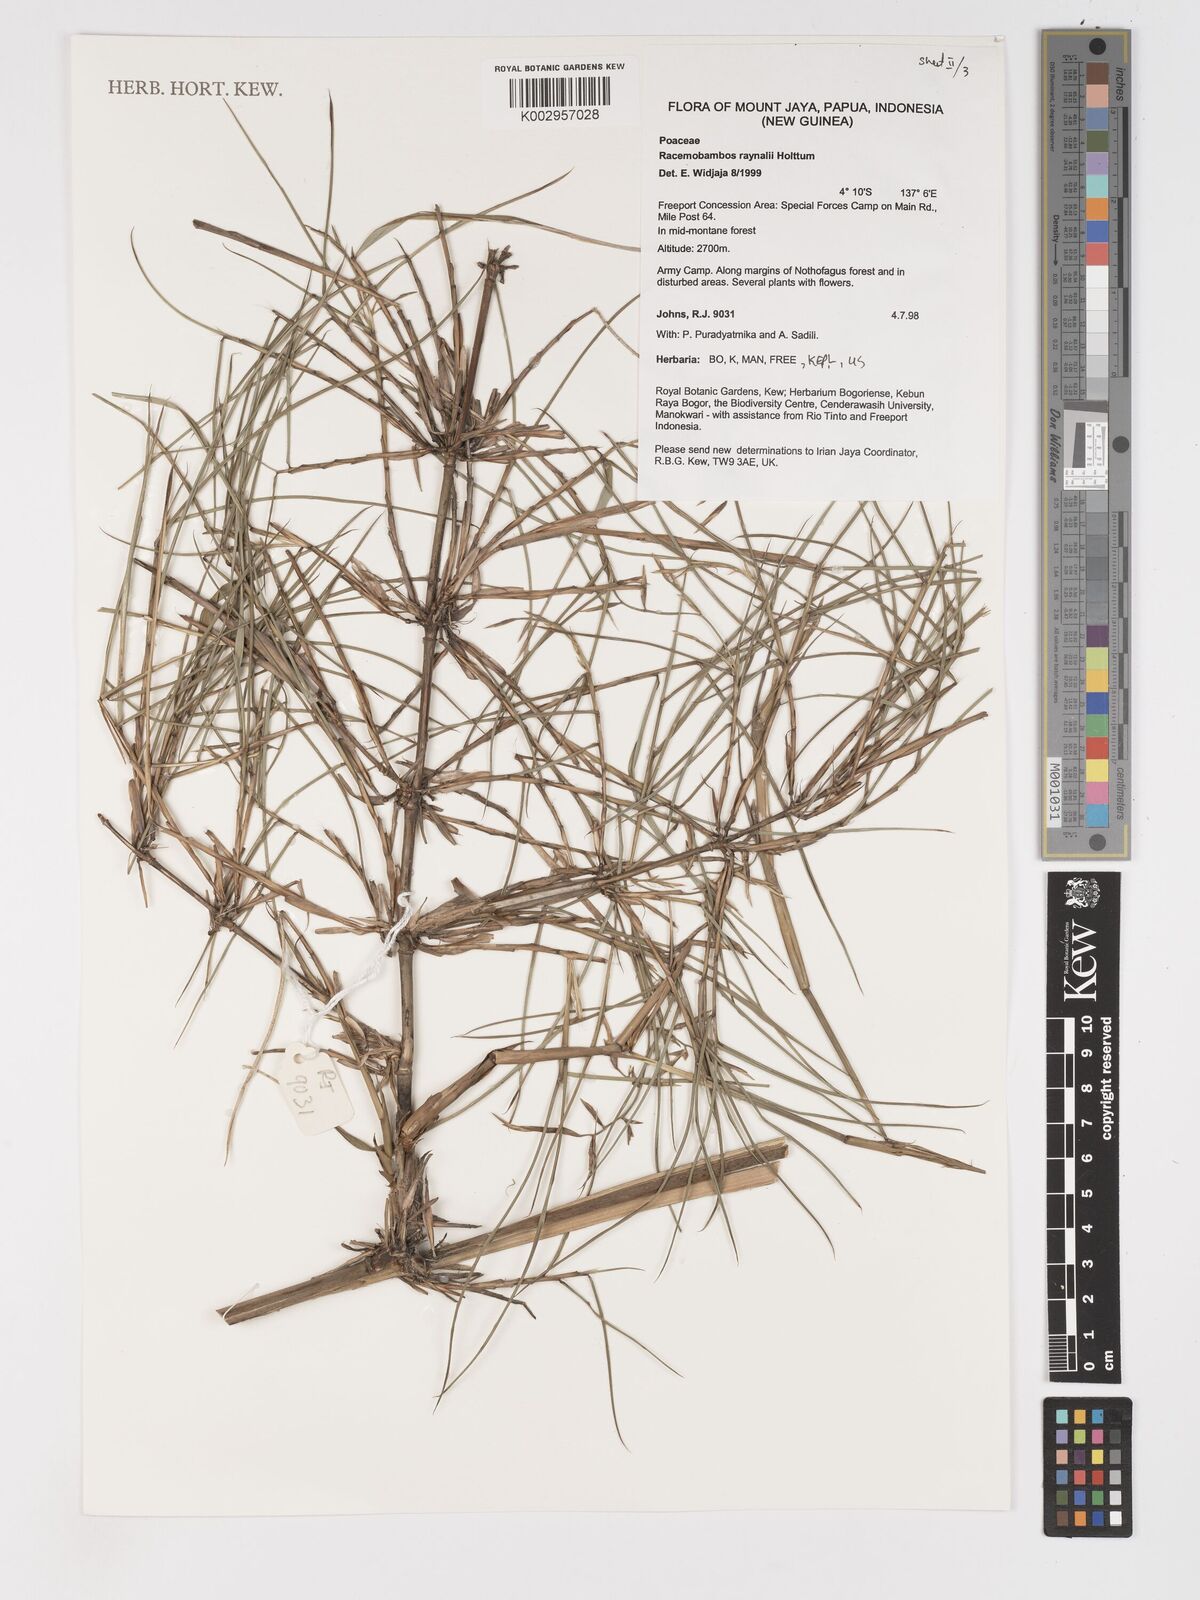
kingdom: Plantae
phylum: Tracheophyta
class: Liliopsida
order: Poales
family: Poaceae
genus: Racemobambos
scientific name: Racemobambos raynalii
